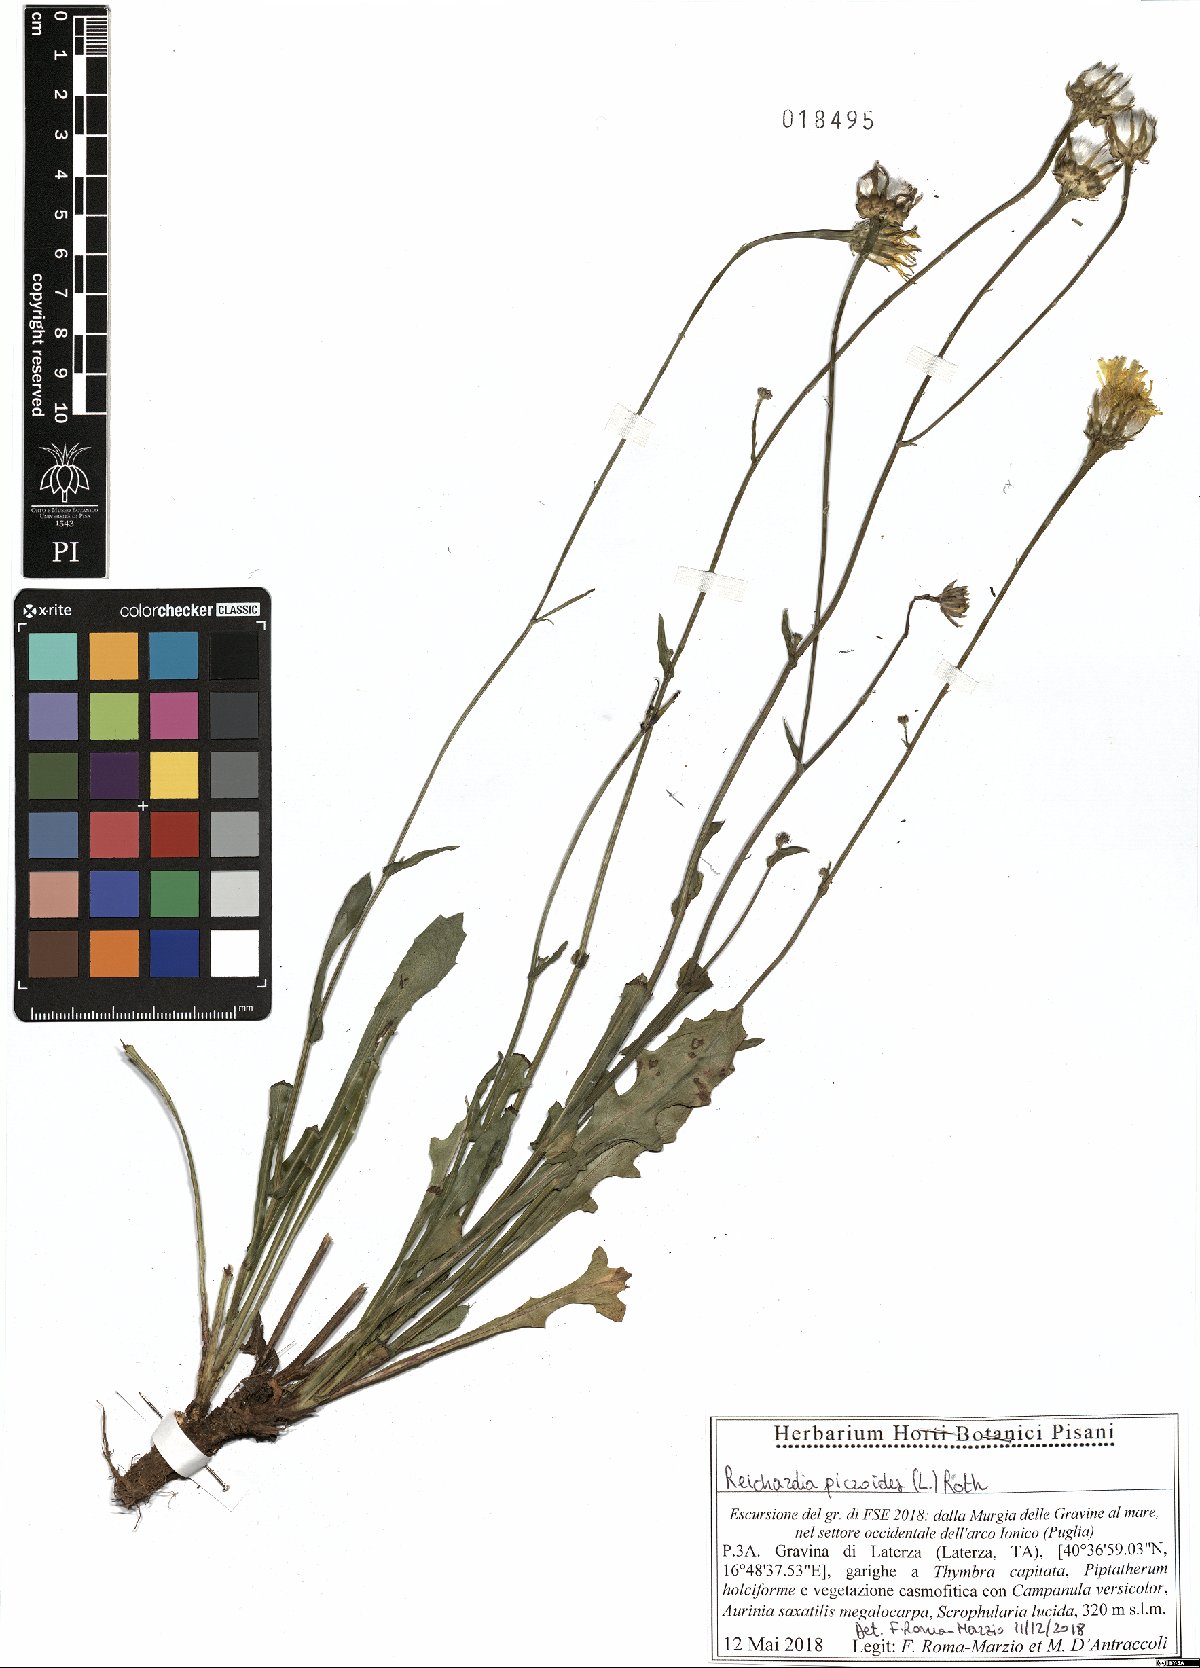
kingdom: Plantae
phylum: Tracheophyta
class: Magnoliopsida
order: Asterales
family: Asteraceae
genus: Reichardia
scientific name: Reichardia picroides
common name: Common brighteyes
